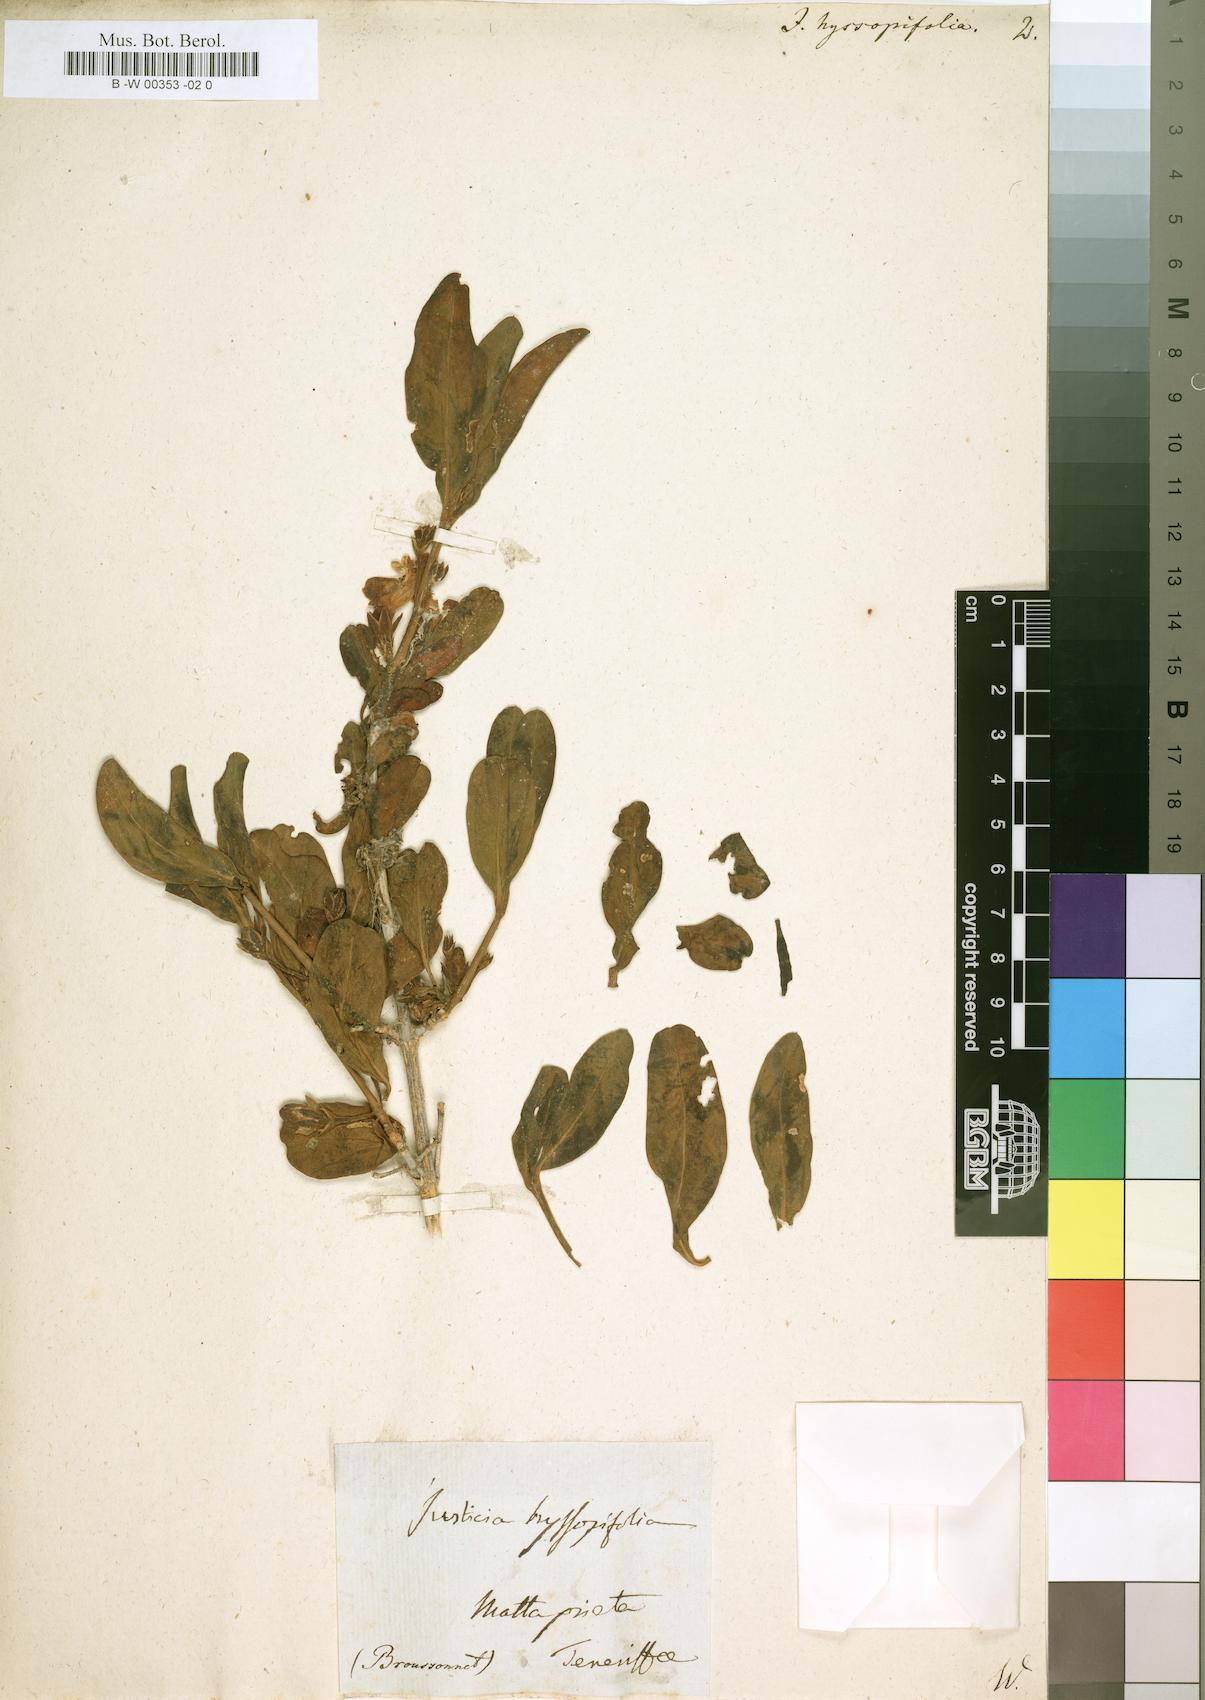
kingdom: Plantae
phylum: Tracheophyta
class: Magnoliopsida
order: Lamiales
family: Acanthaceae
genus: Justicia
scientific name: Justicia hyssopifolia
